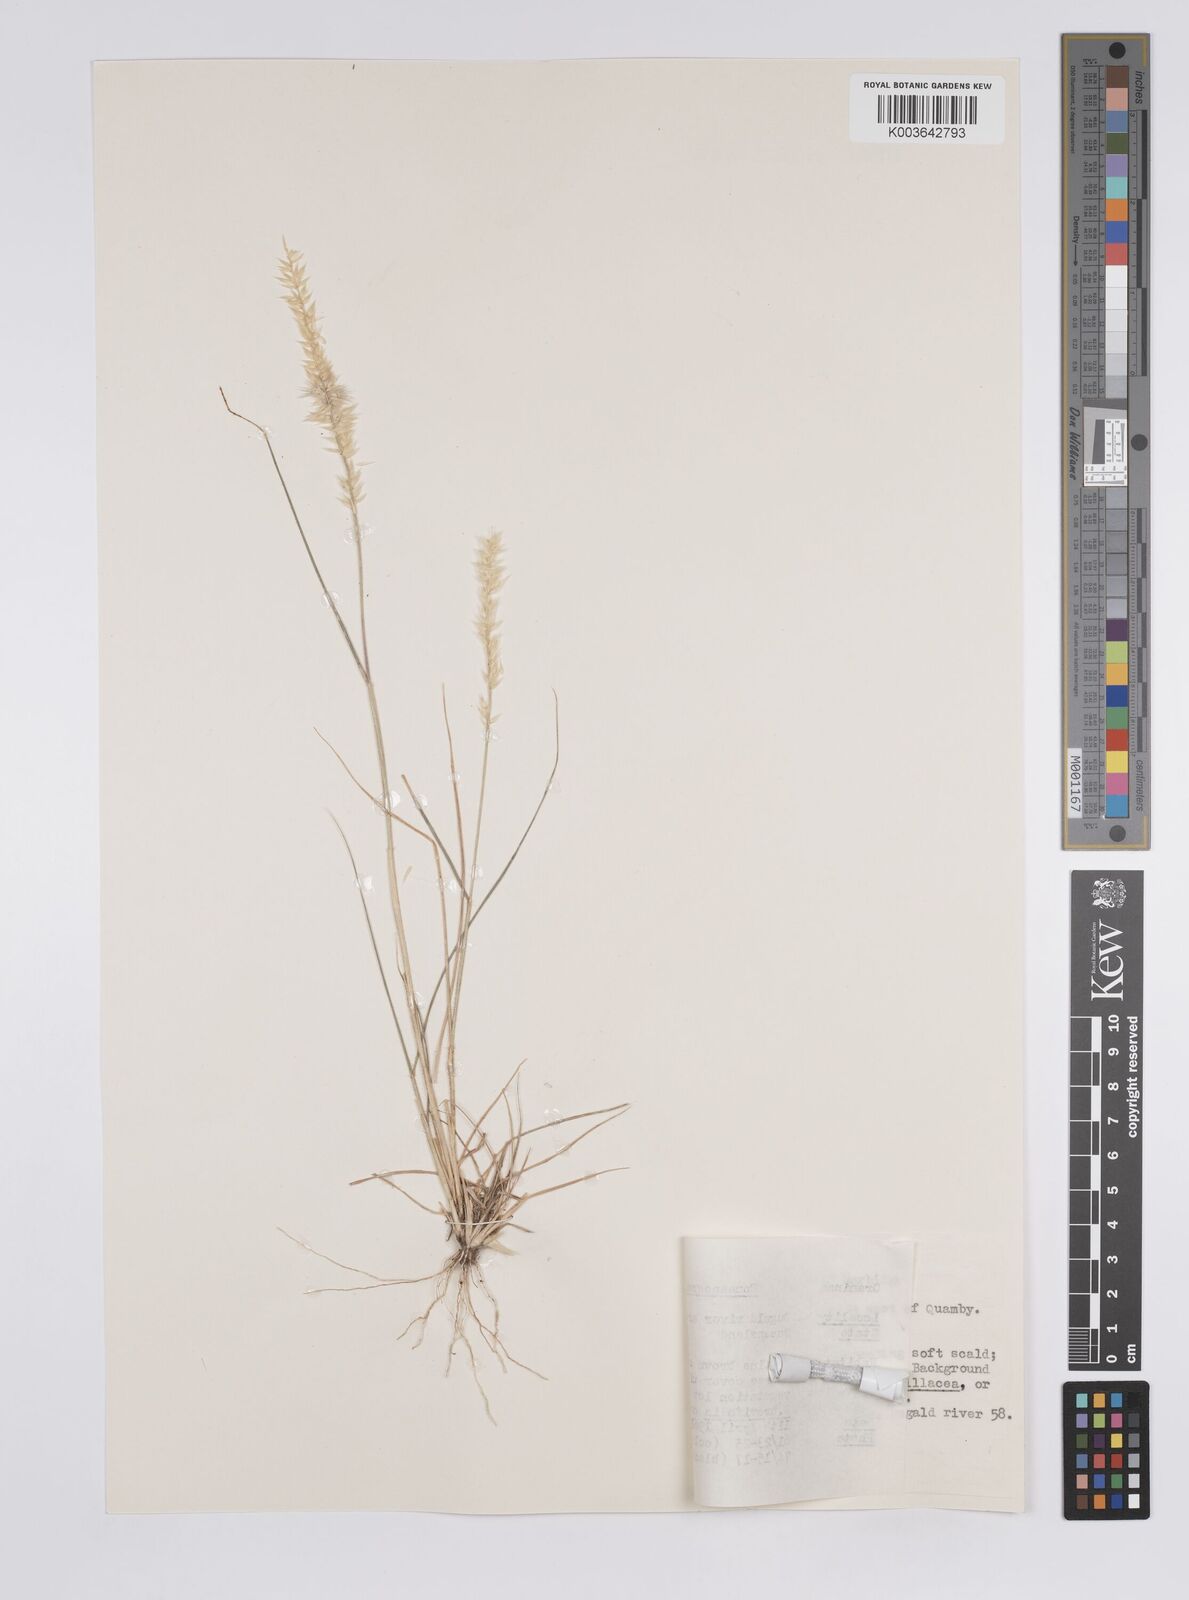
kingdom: Plantae
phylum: Tracheophyta
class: Liliopsida
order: Poales
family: Poaceae
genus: Enneapogon
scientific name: Enneapogon polyphyllus
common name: Leafy nineawn
